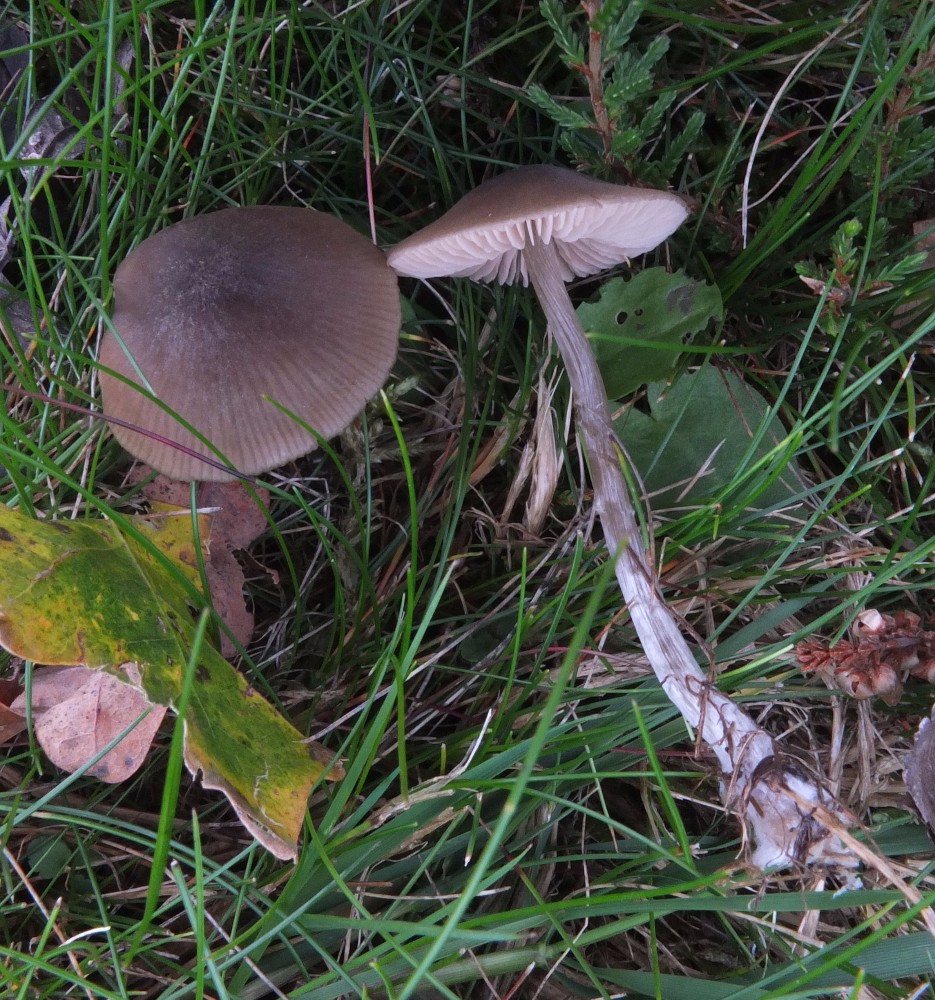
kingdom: Fungi
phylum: Basidiomycota
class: Agaricomycetes
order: Agaricales
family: Entolomataceae
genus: Entoloma
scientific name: Entoloma conferendum
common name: stjernesporet rødblad
